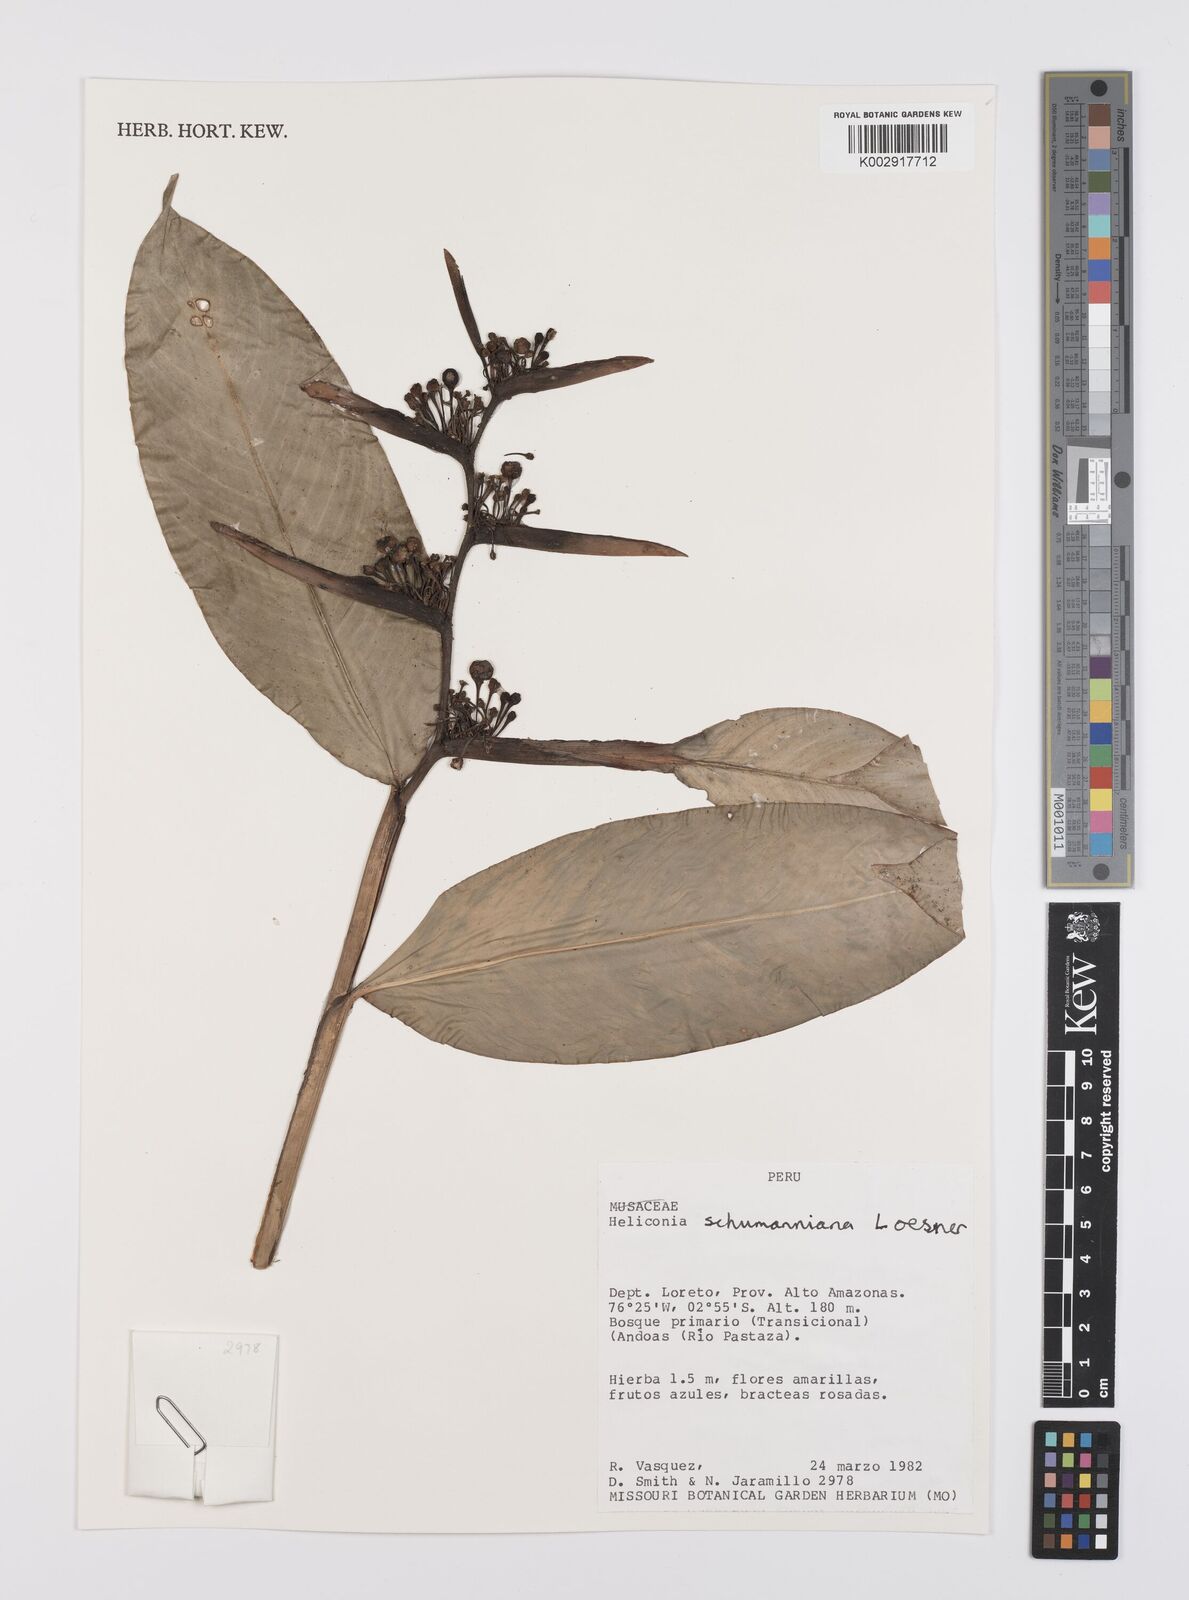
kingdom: Plantae
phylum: Tracheophyta
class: Liliopsida
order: Zingiberales
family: Heliconiaceae
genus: Heliconia
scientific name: Heliconia schumanniana
